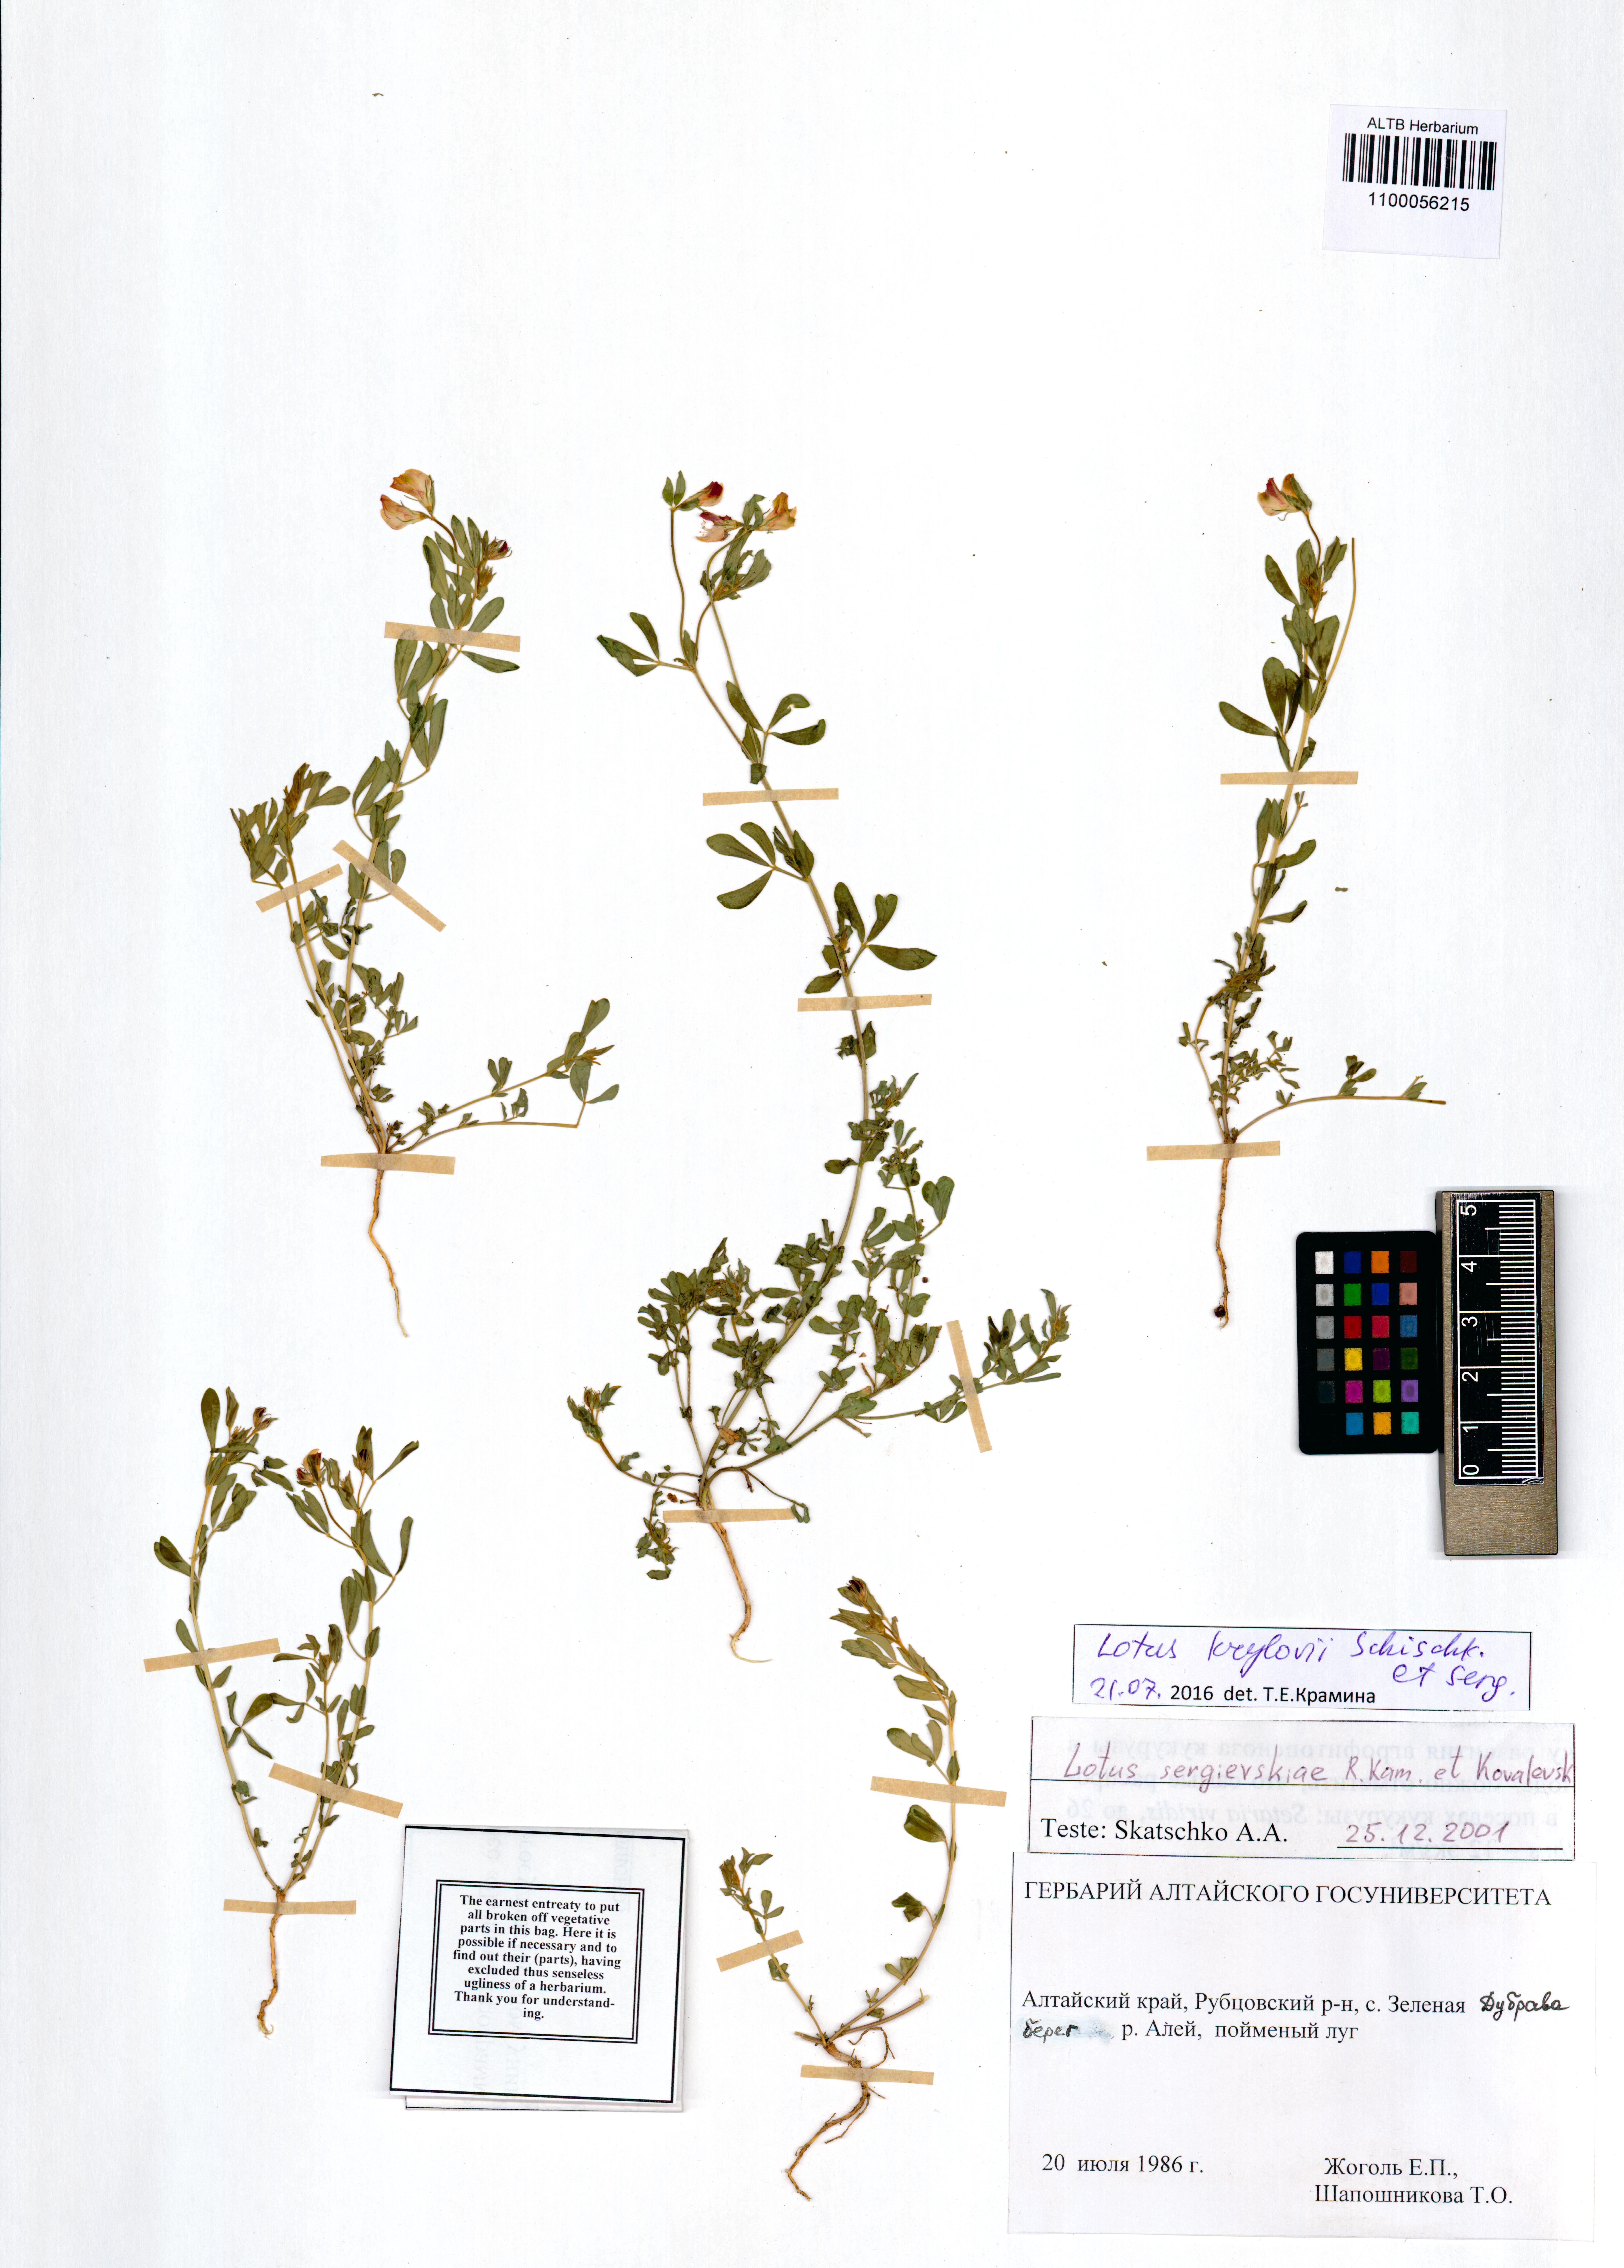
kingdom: Plantae
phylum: Tracheophyta
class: Magnoliopsida
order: Fabales
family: Fabaceae
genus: Lotus
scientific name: Lotus krylovii
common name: Krylov's bird's-foot trefoil
